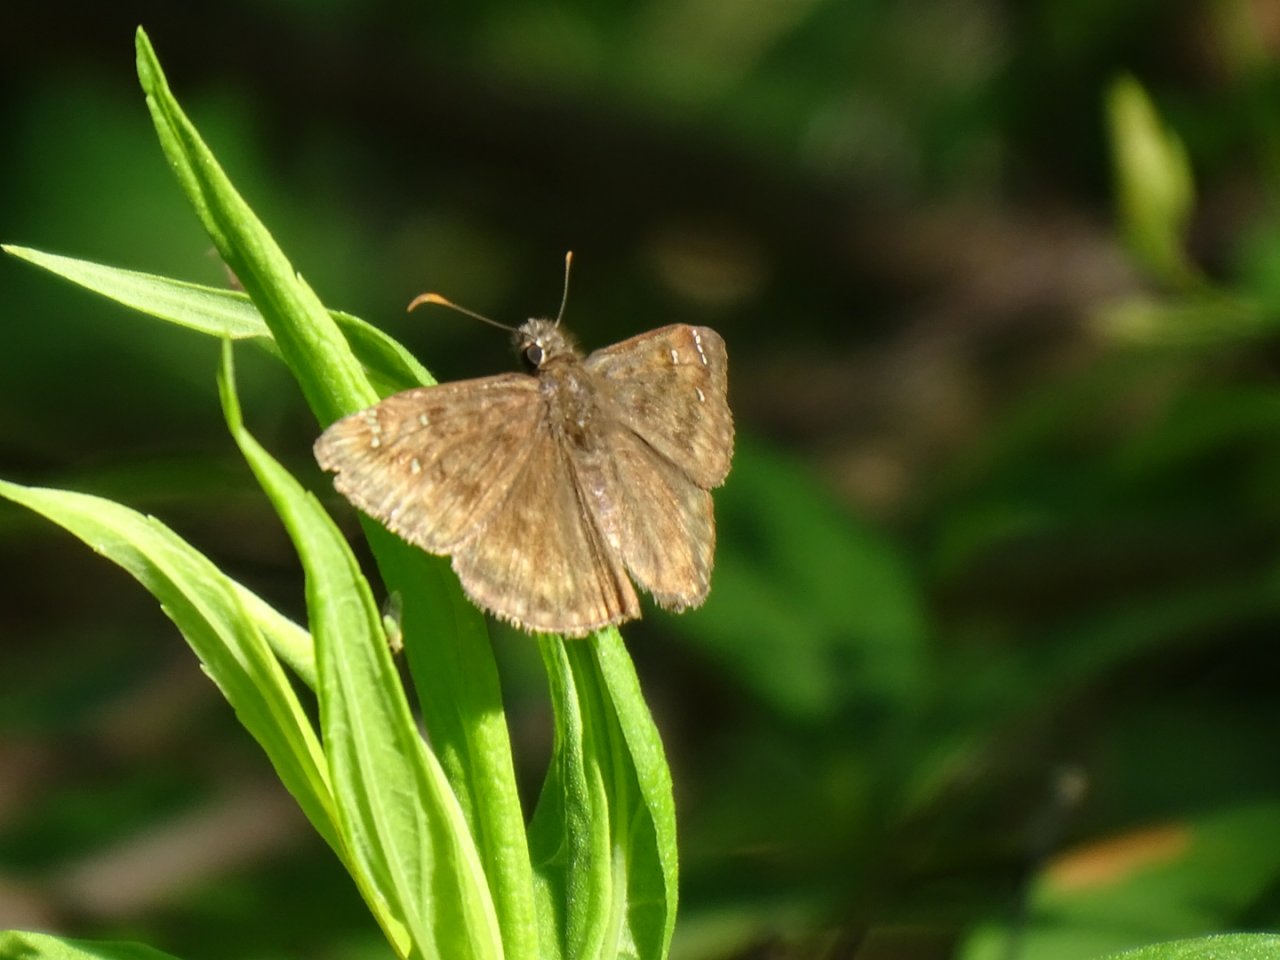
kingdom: Animalia
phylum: Arthropoda
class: Insecta
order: Lepidoptera
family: Hesperiidae
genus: Gesta
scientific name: Gesta
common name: Horace's Duskywing
